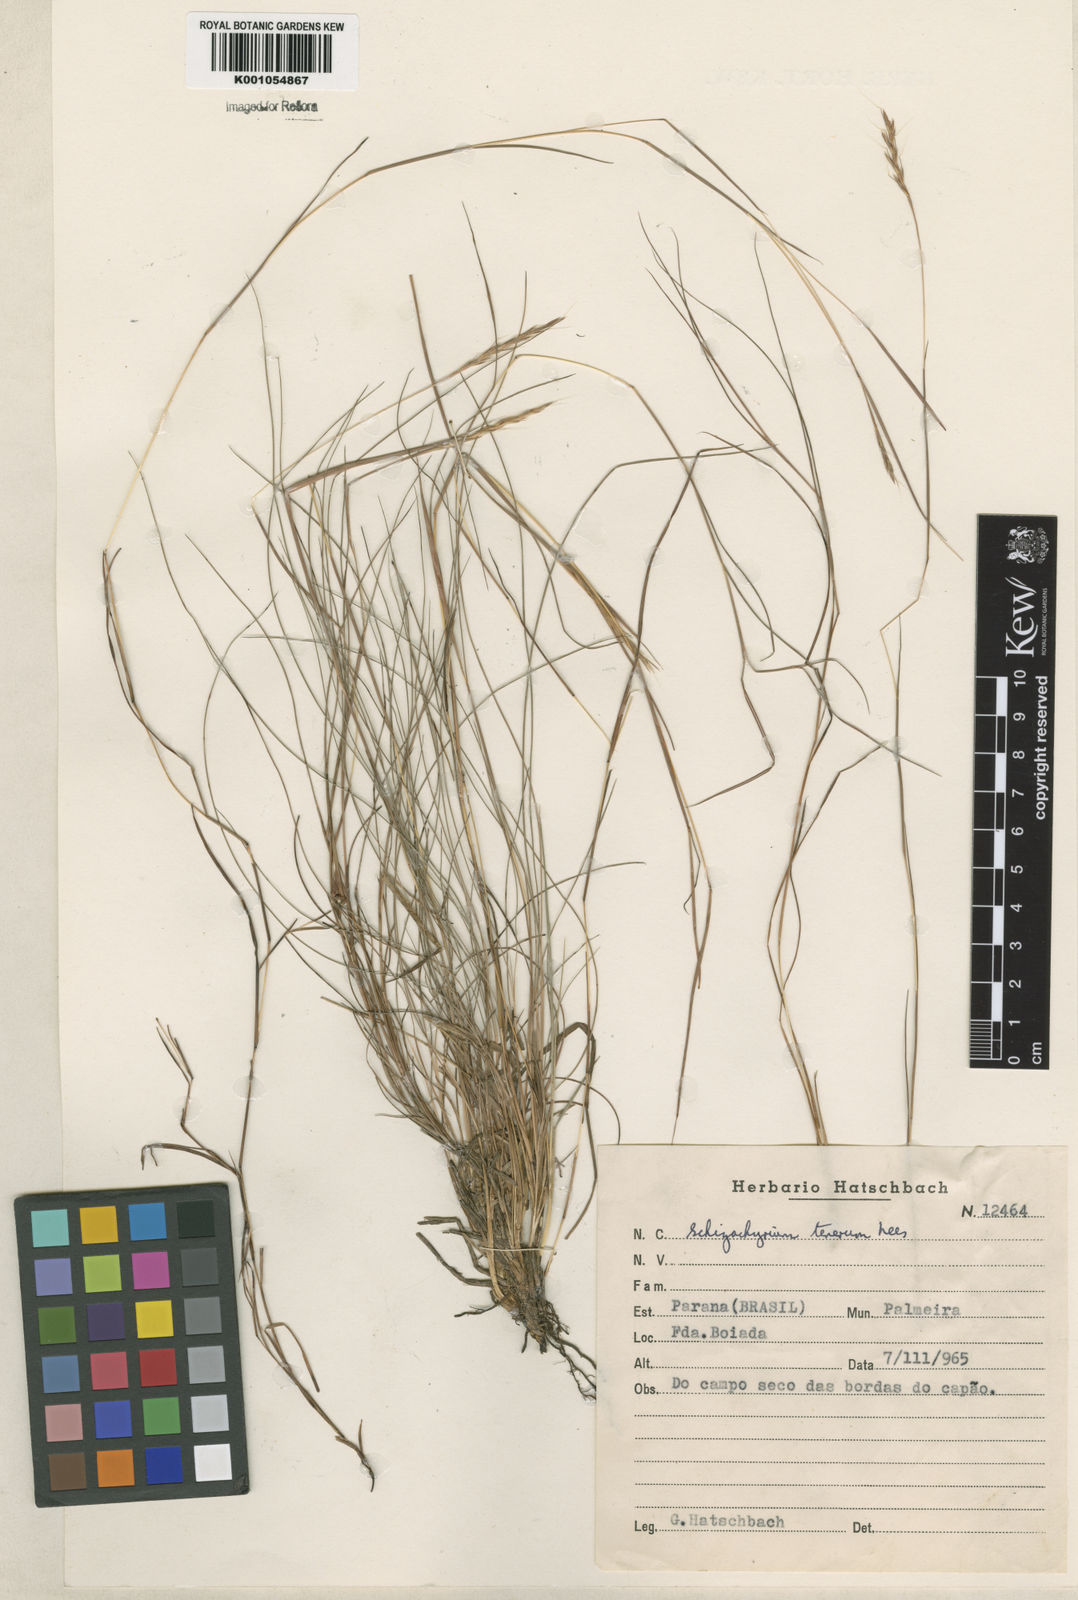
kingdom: Plantae
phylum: Tracheophyta
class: Liliopsida
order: Poales
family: Poaceae
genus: Andropogon
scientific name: Andropogon tener
